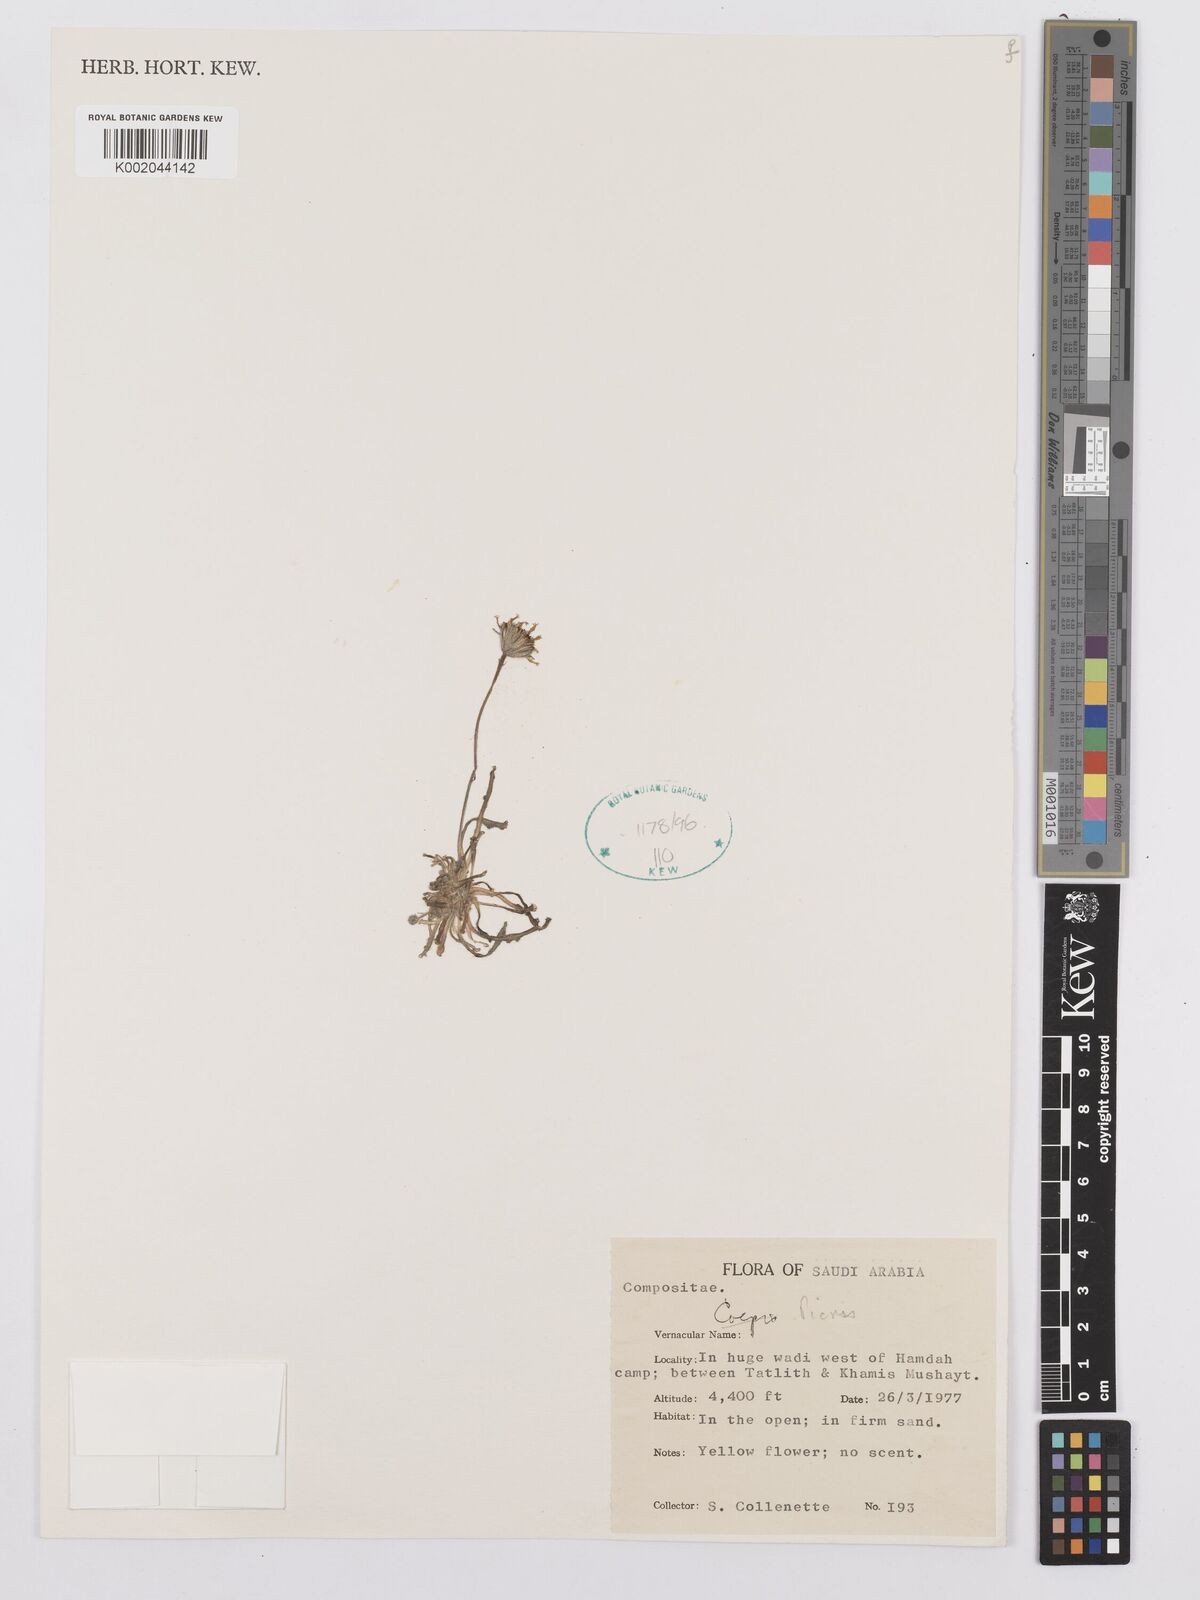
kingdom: Plantae
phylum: Tracheophyta
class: Magnoliopsida
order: Asterales
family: Asteraceae
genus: Picris
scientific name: Picris
